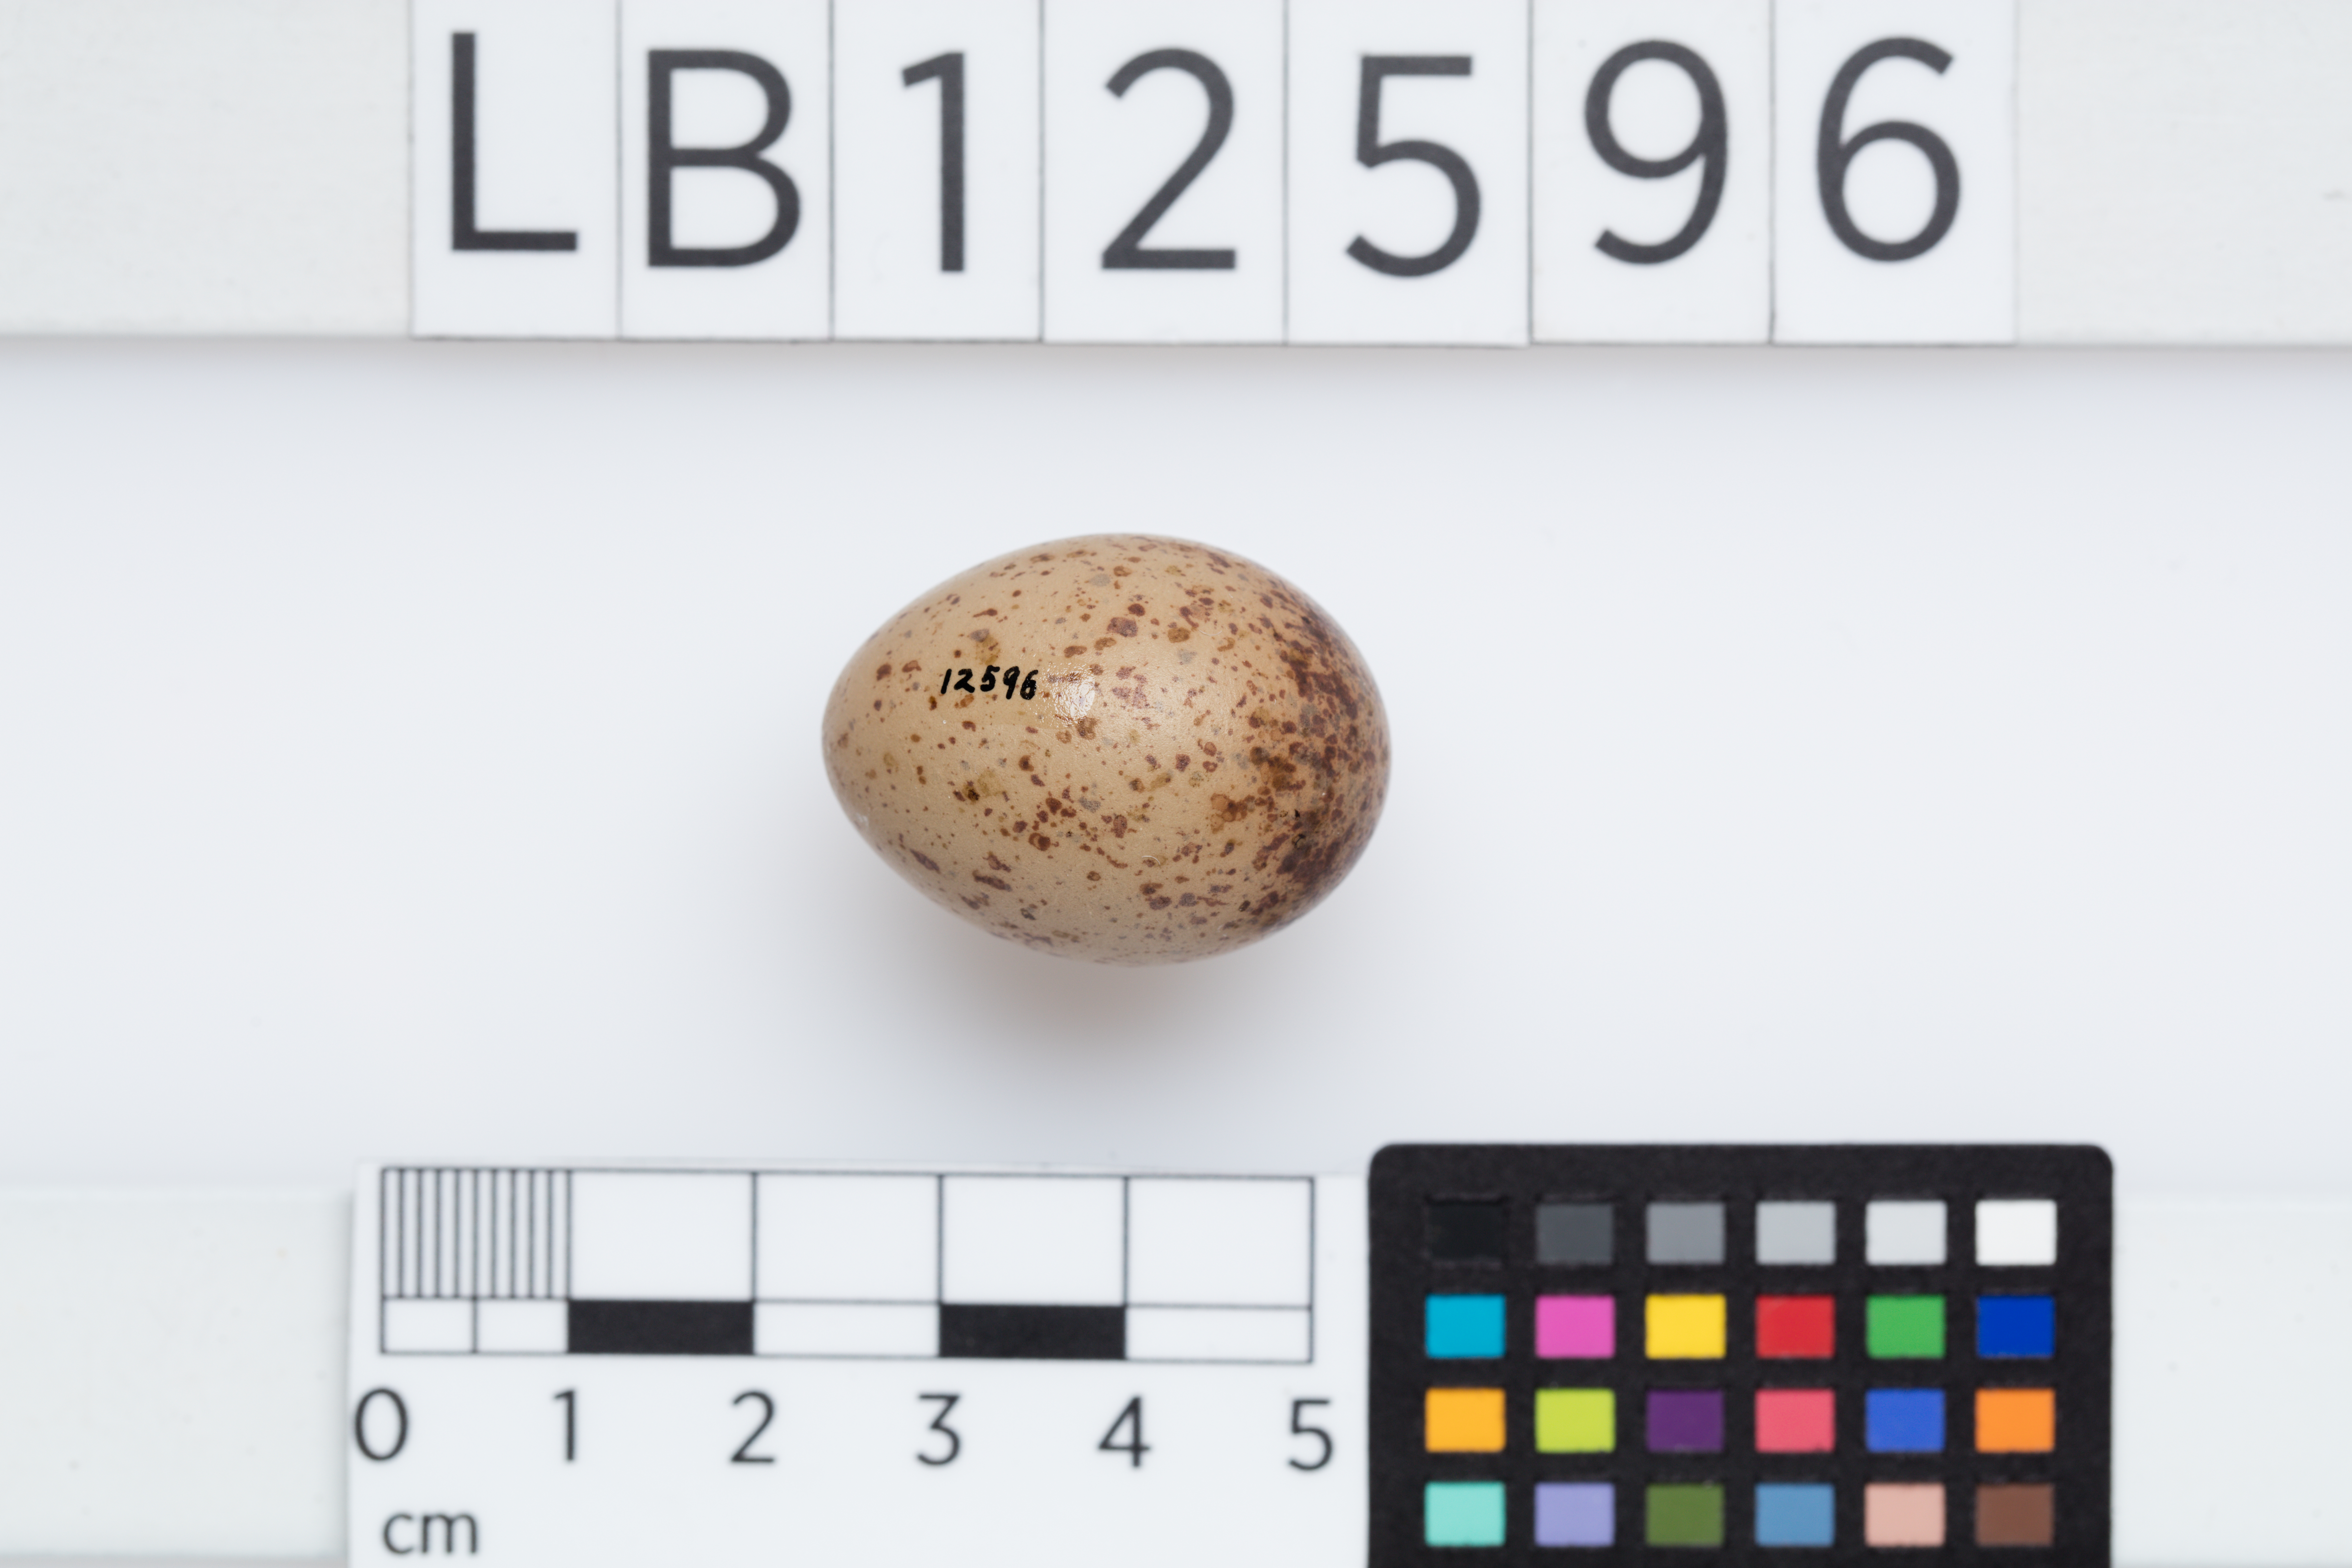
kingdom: Animalia
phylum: Chordata
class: Aves
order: Passeriformes
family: Cracticidae
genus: Cracticus
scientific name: Cracticus torquatus
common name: Grey butcherbird
